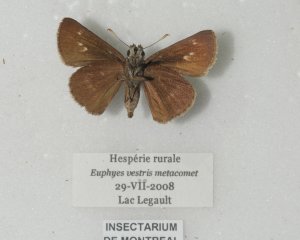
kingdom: Animalia
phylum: Arthropoda
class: Insecta
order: Lepidoptera
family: Hesperiidae
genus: Euphyes
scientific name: Euphyes vestris
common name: Dun Skipper
